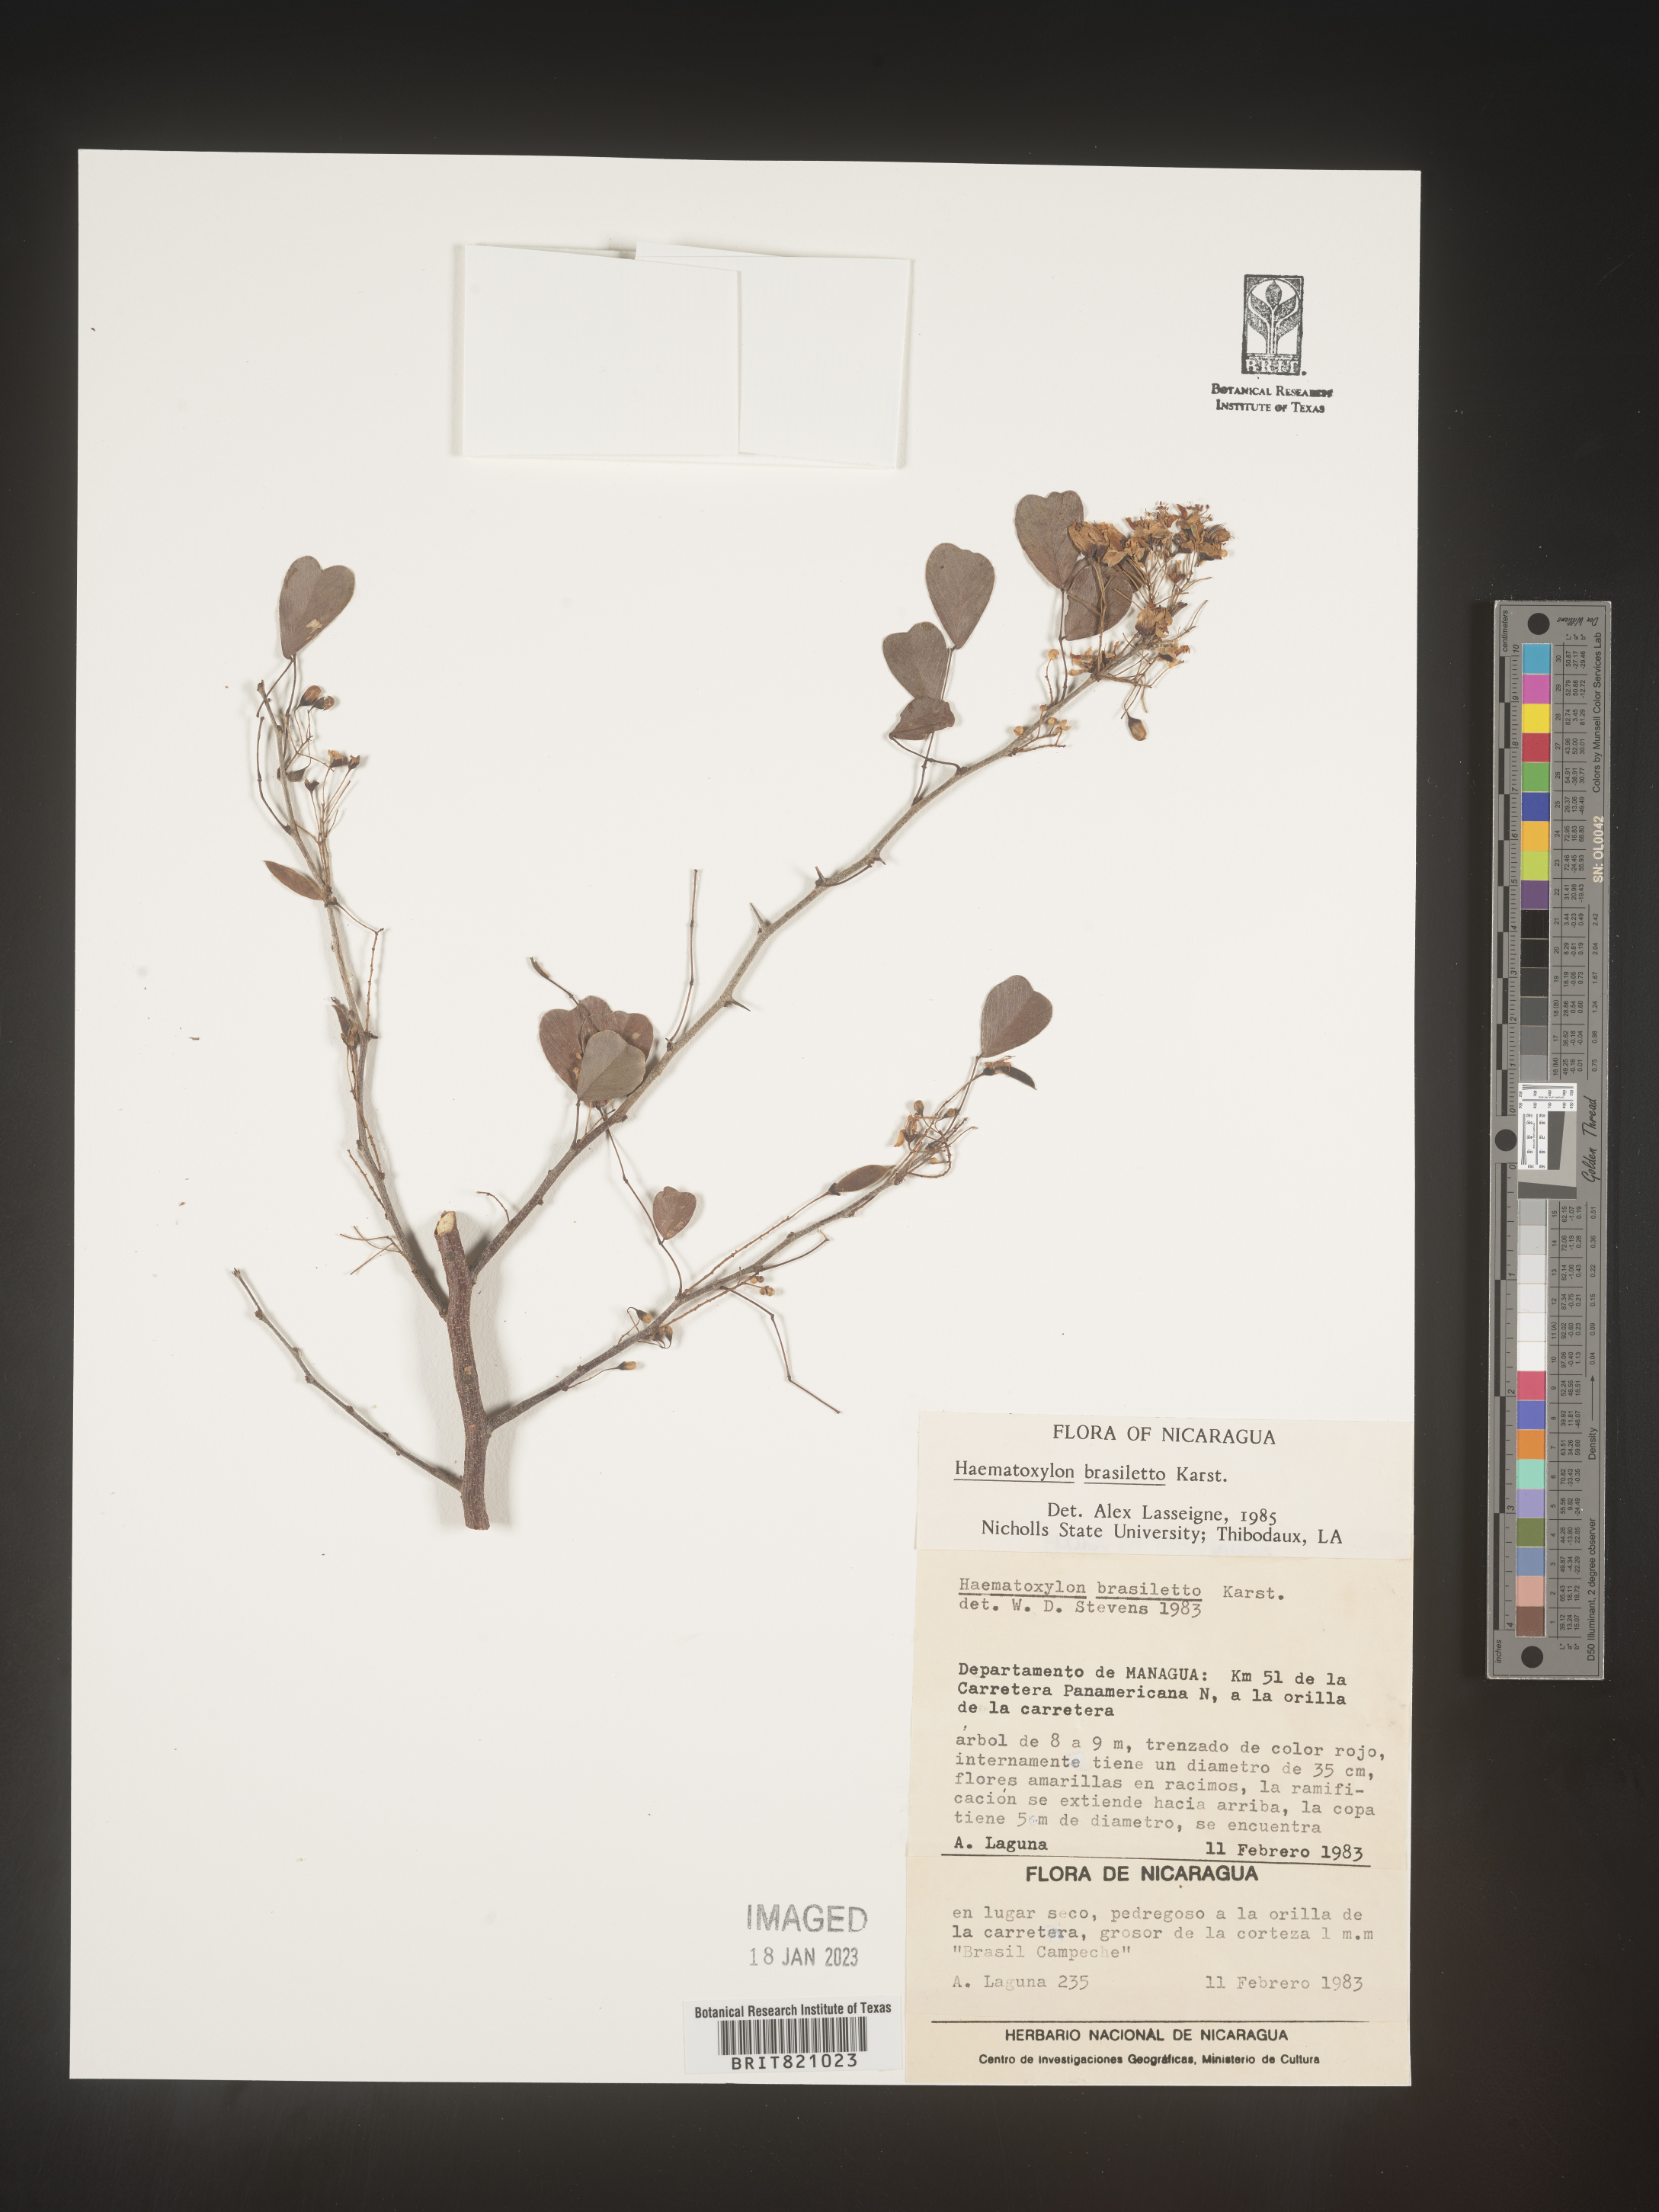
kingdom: Plantae
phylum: Tracheophyta
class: Magnoliopsida
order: Fabales
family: Fabaceae
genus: Haematoxylum
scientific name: Haematoxylum
